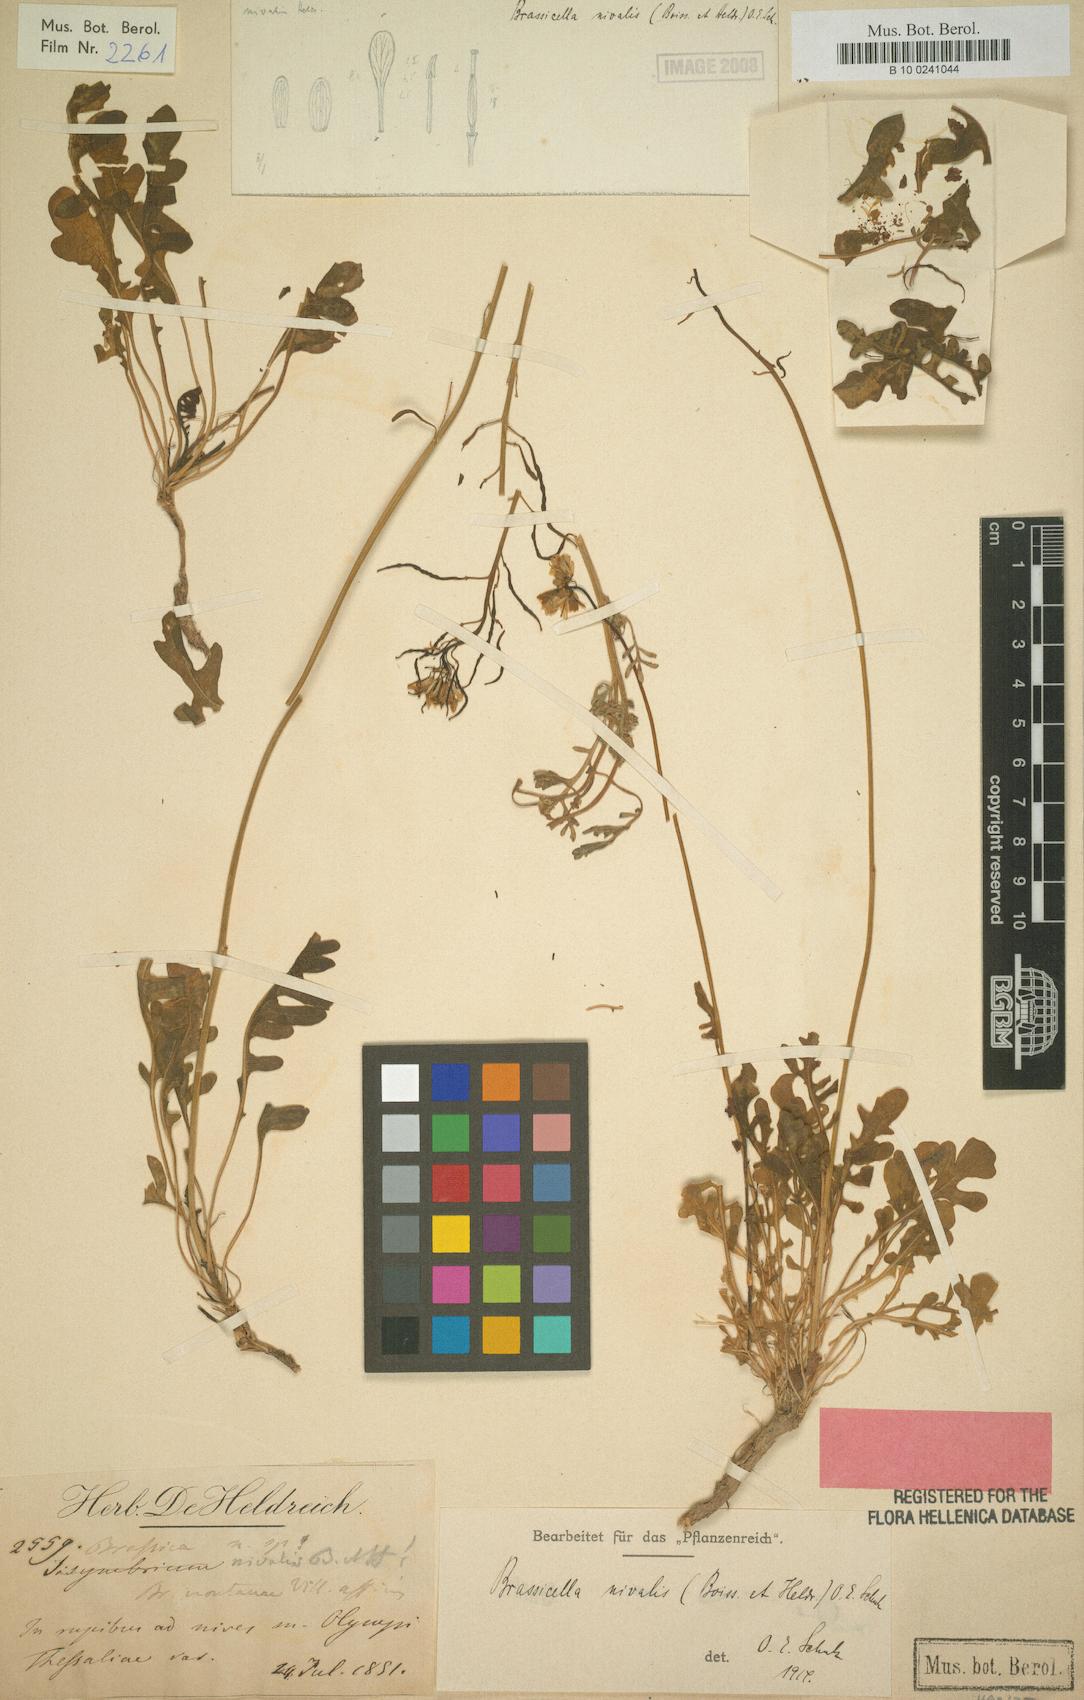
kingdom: Plantae
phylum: Tracheophyta
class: Magnoliopsida
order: Brassicales
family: Brassicaceae
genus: Brassica
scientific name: Brassica nivalis
